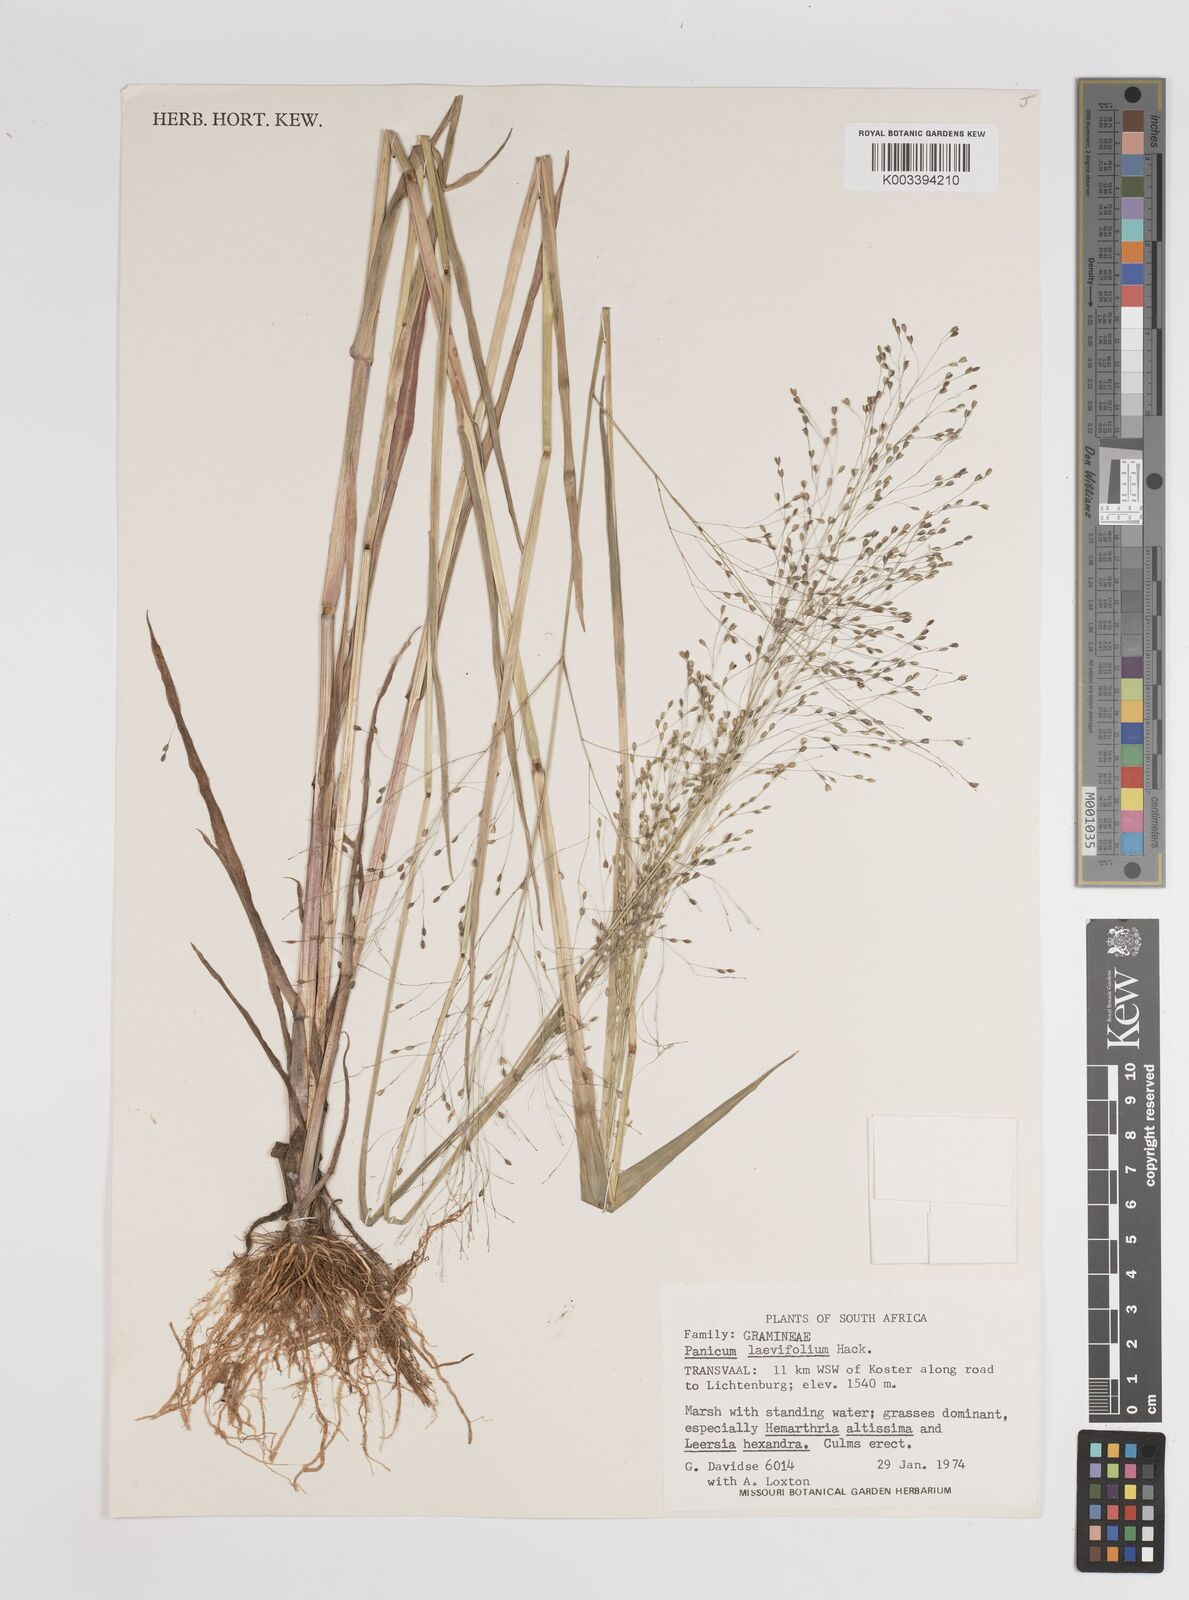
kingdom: Plantae
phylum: Tracheophyta
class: Liliopsida
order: Poales
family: Poaceae
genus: Panicum
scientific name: Panicum schinzii
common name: Sweet grass
